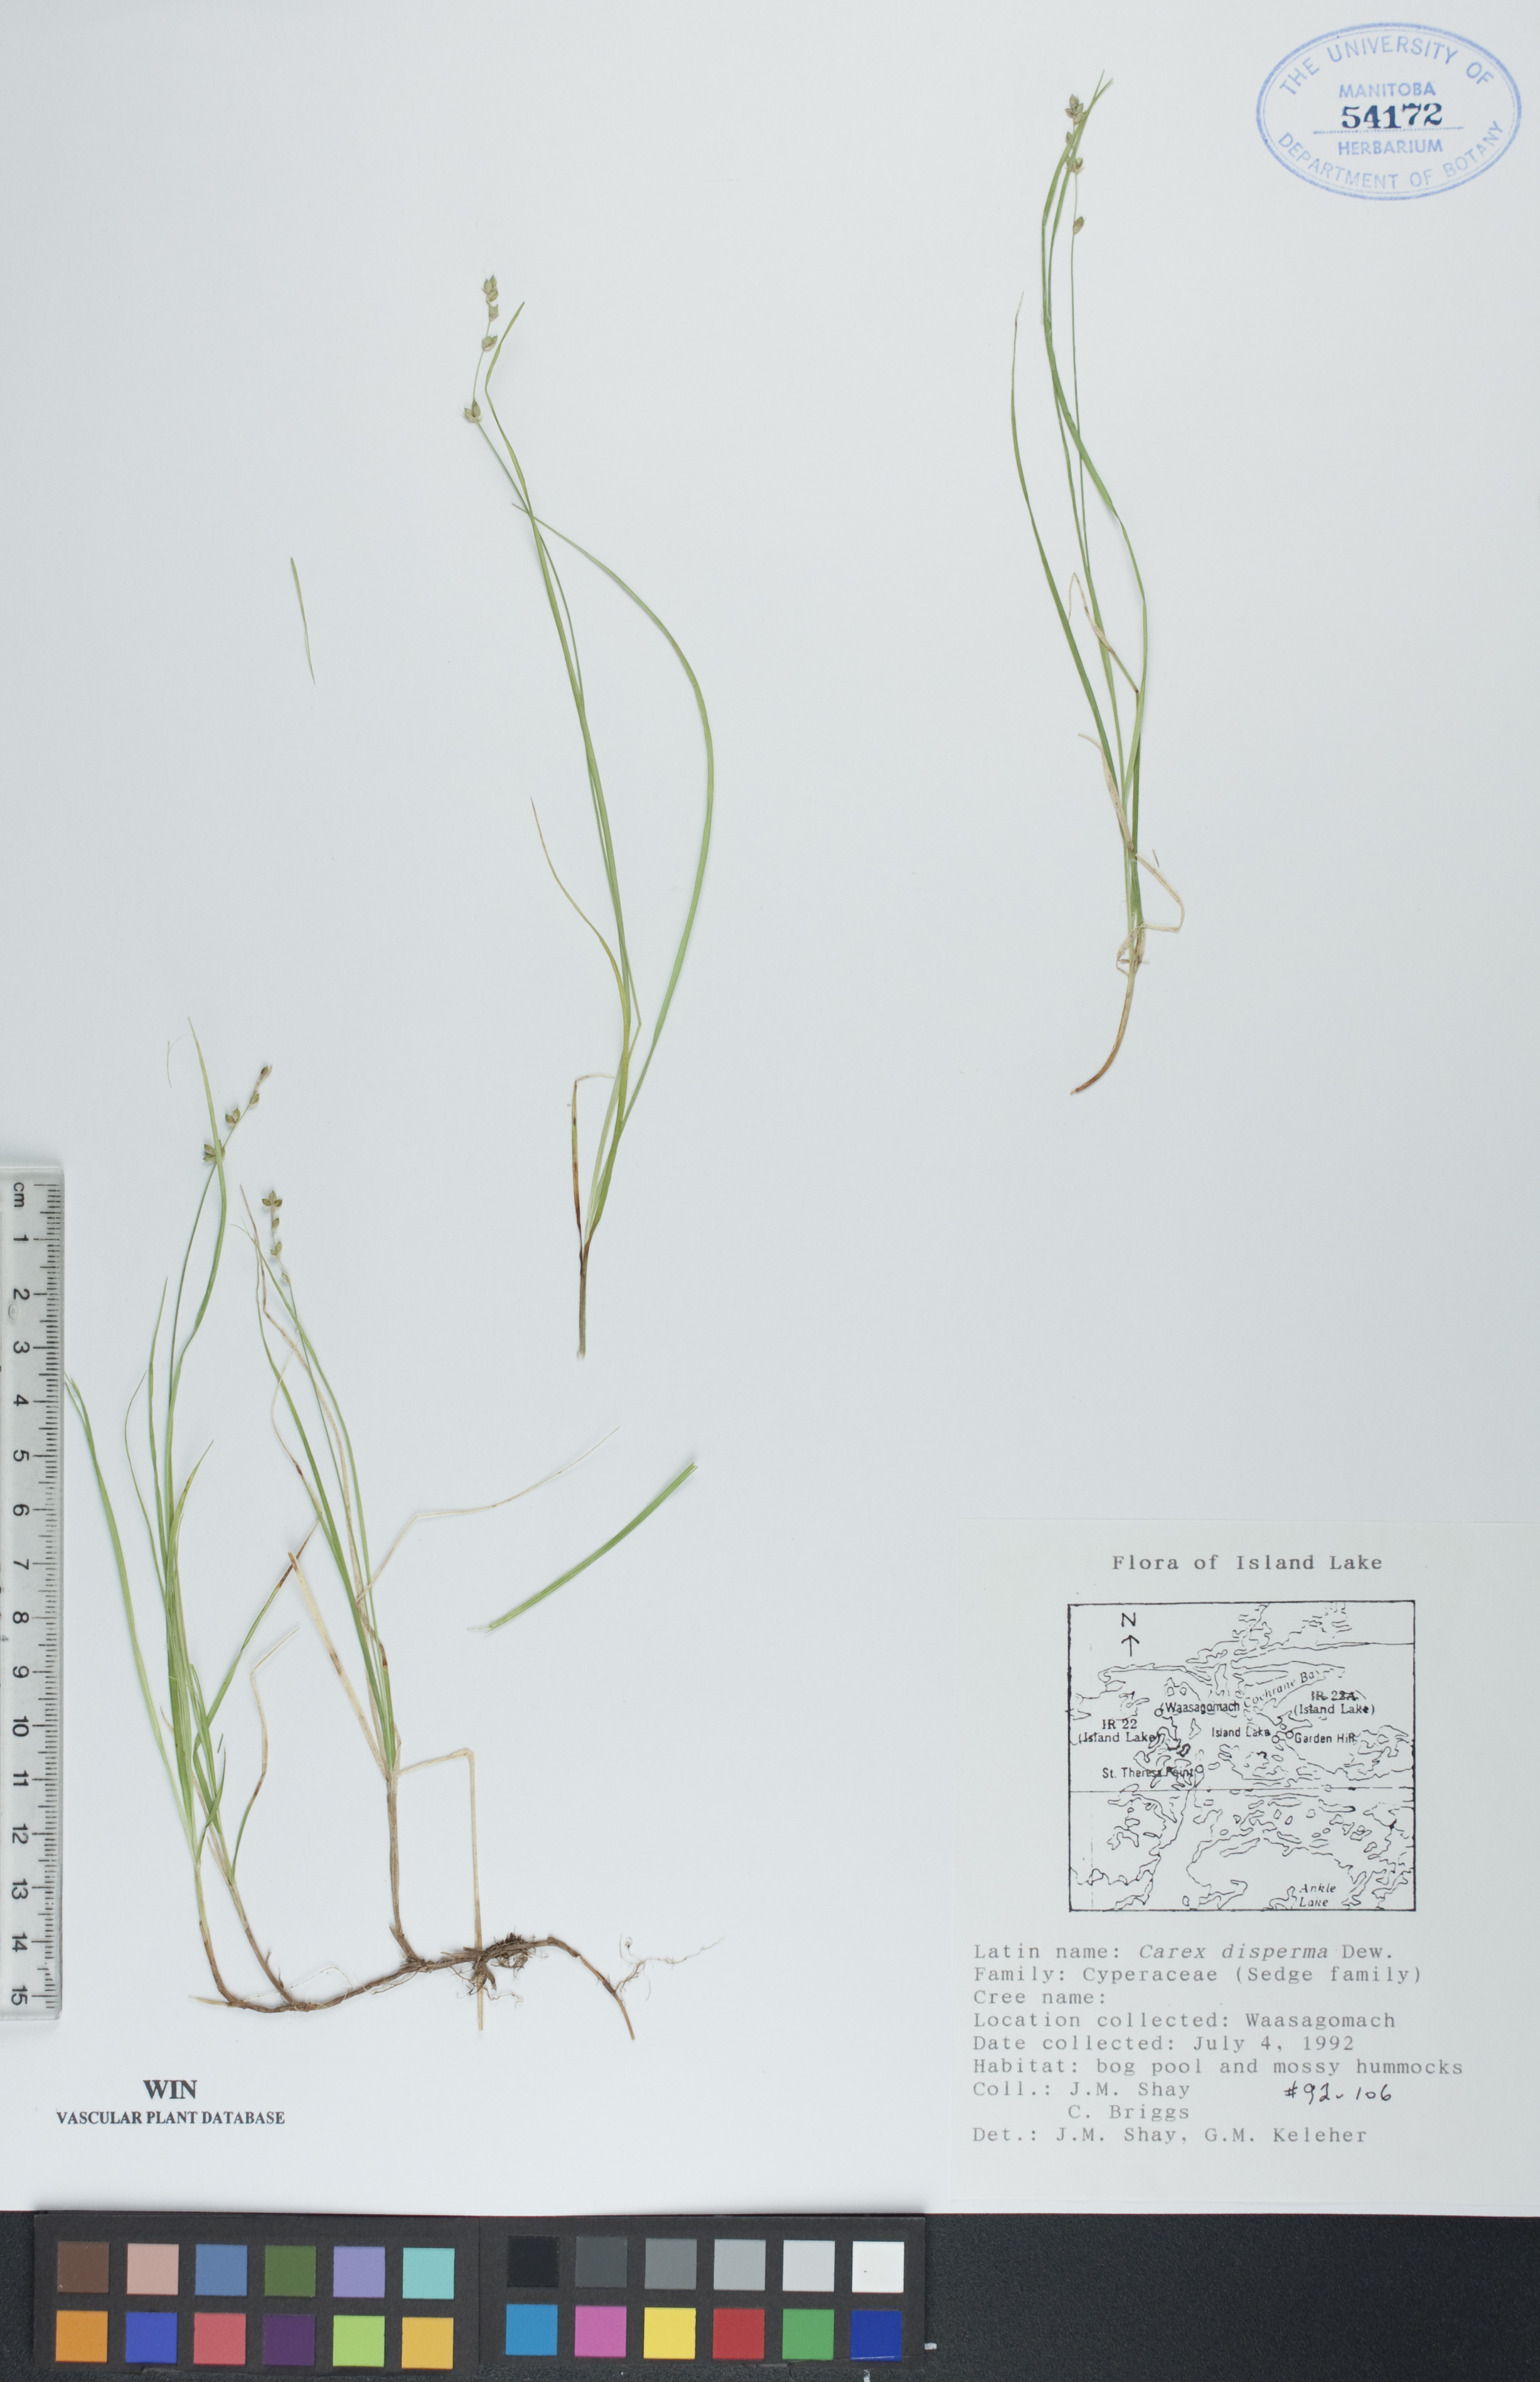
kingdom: Plantae
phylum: Tracheophyta
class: Liliopsida
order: Poales
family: Cyperaceae
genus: Carex
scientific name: Carex disperma
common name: Short-leaved sedge
